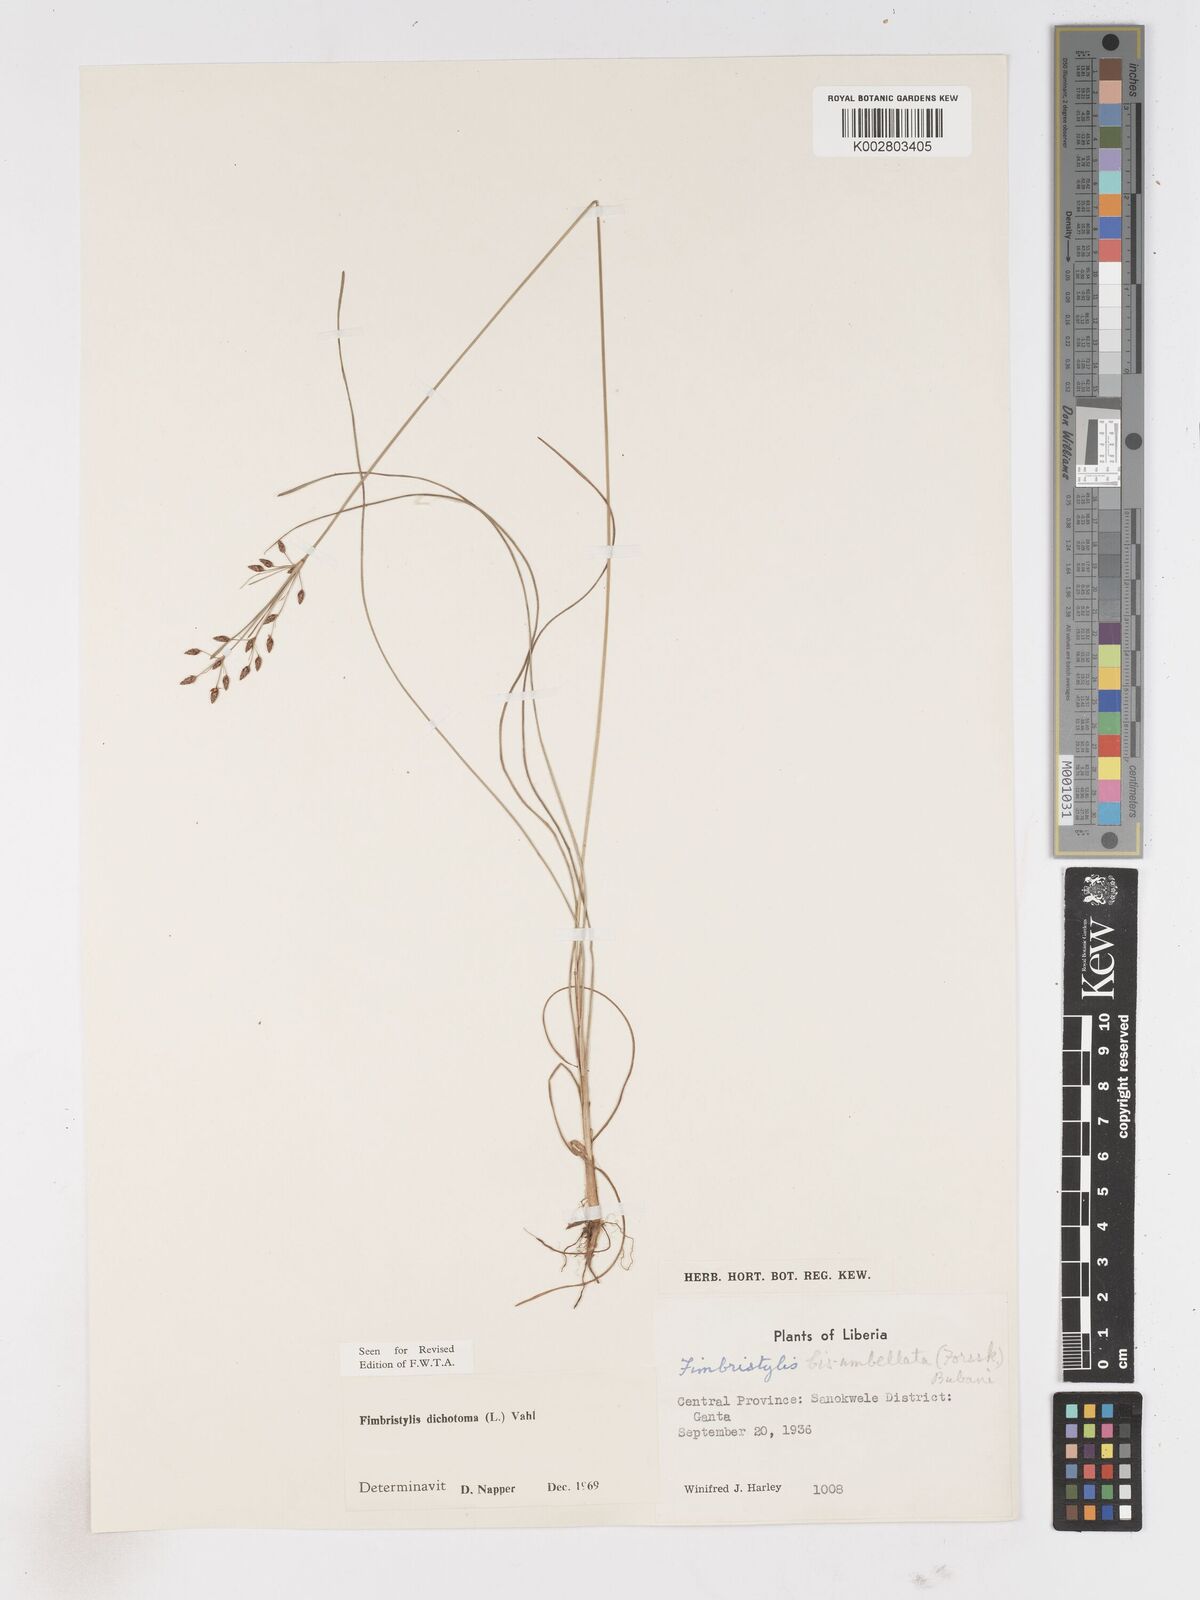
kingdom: Plantae
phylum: Tracheophyta
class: Liliopsida
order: Poales
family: Cyperaceae
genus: Fimbristylis
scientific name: Fimbristylis dichotoma
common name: Forked fimbry
